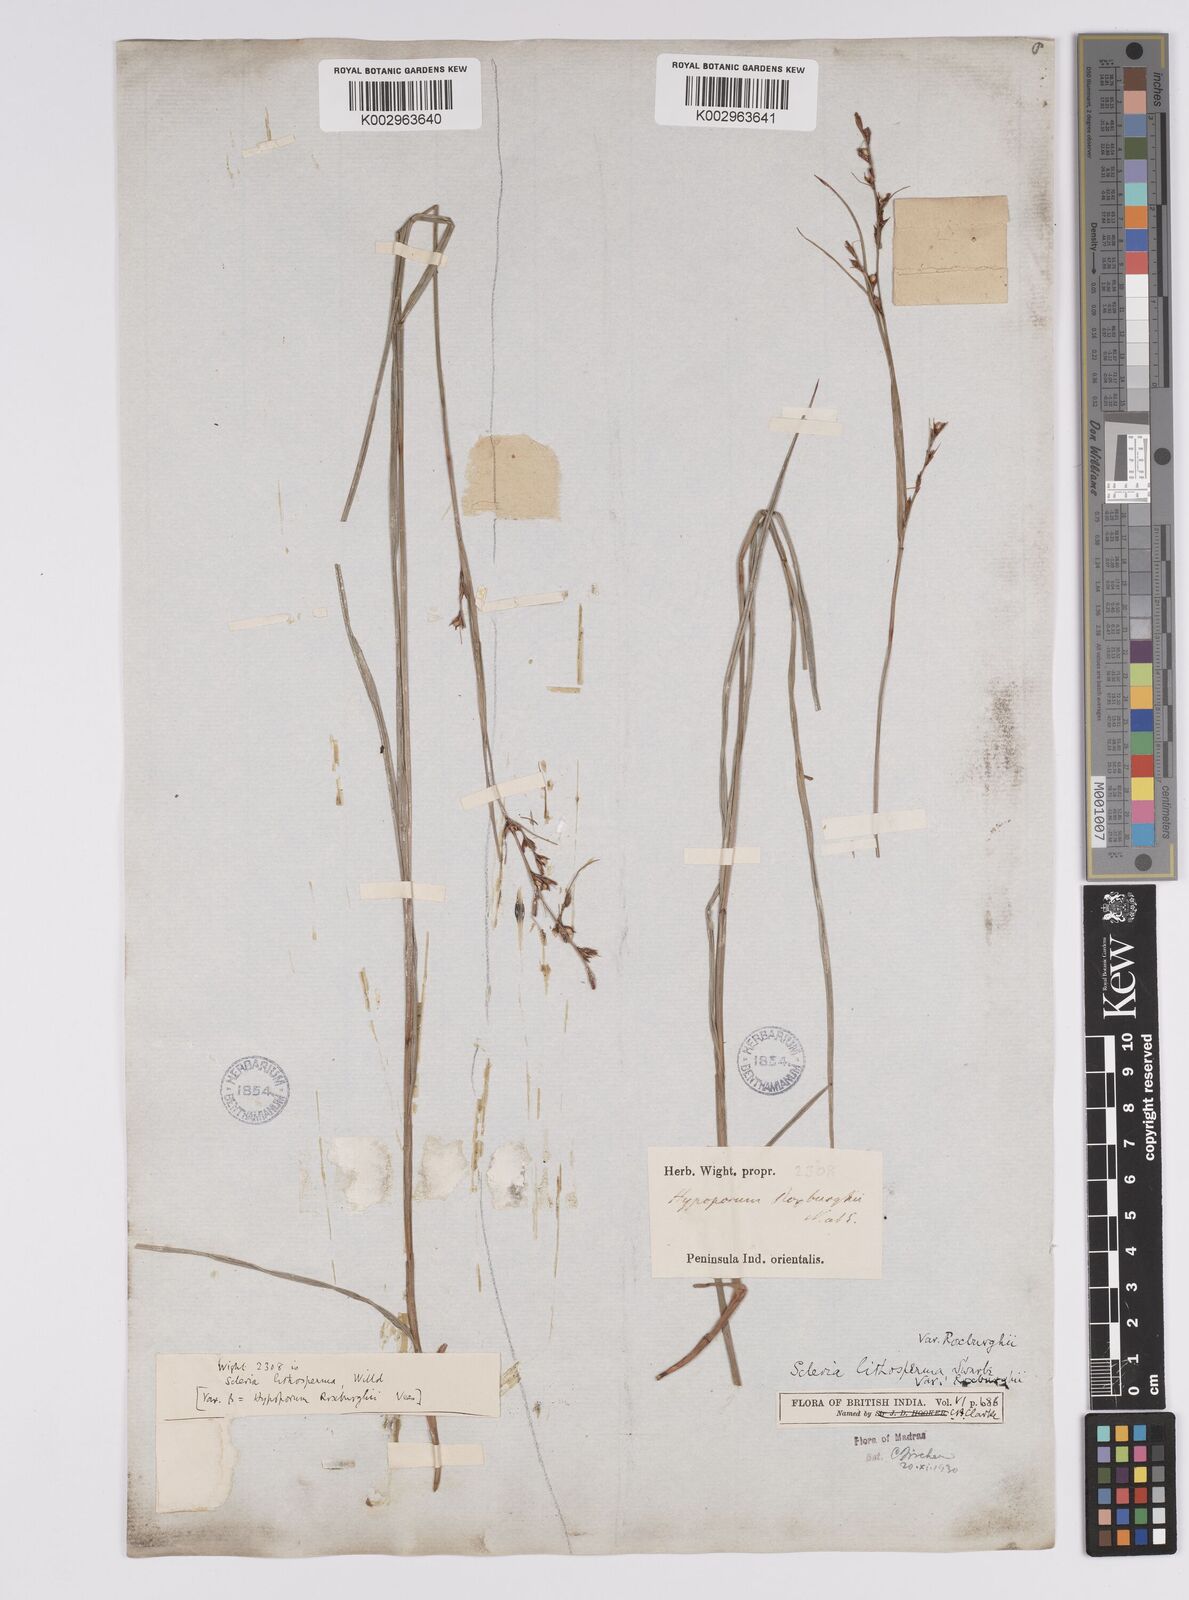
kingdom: Plantae
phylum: Tracheophyta
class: Liliopsida
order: Poales
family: Cyperaceae
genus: Scleria
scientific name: Scleria lithosperma
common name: Florida keys nut-rush
